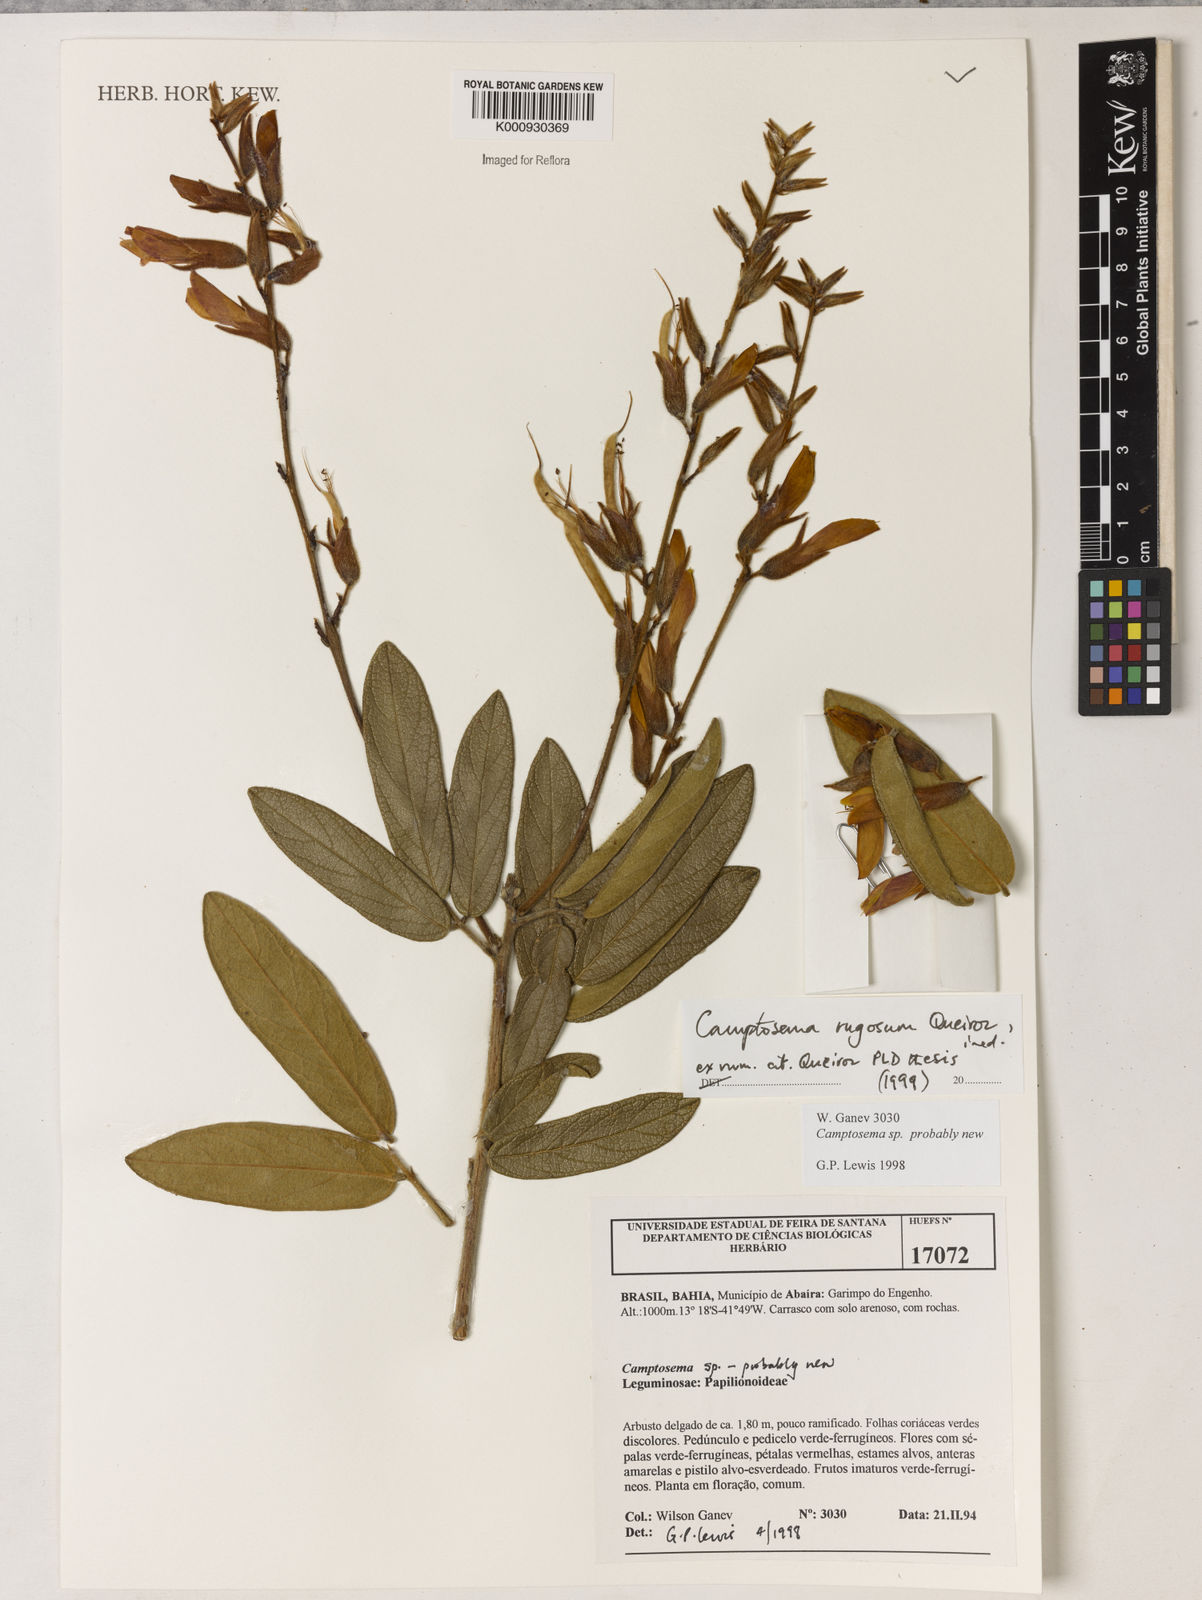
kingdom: Plantae
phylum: Tracheophyta
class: Magnoliopsida
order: Fabales
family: Fabaceae
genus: Camptosema
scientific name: Camptosema
